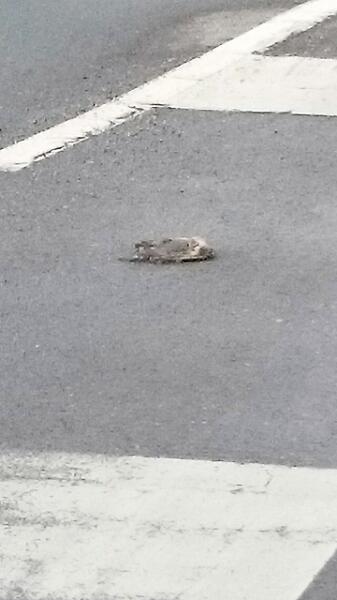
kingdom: Animalia
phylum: Chordata
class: Mammalia
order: Erinaceomorpha
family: Erinaceidae
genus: Erinaceus
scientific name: Erinaceus
